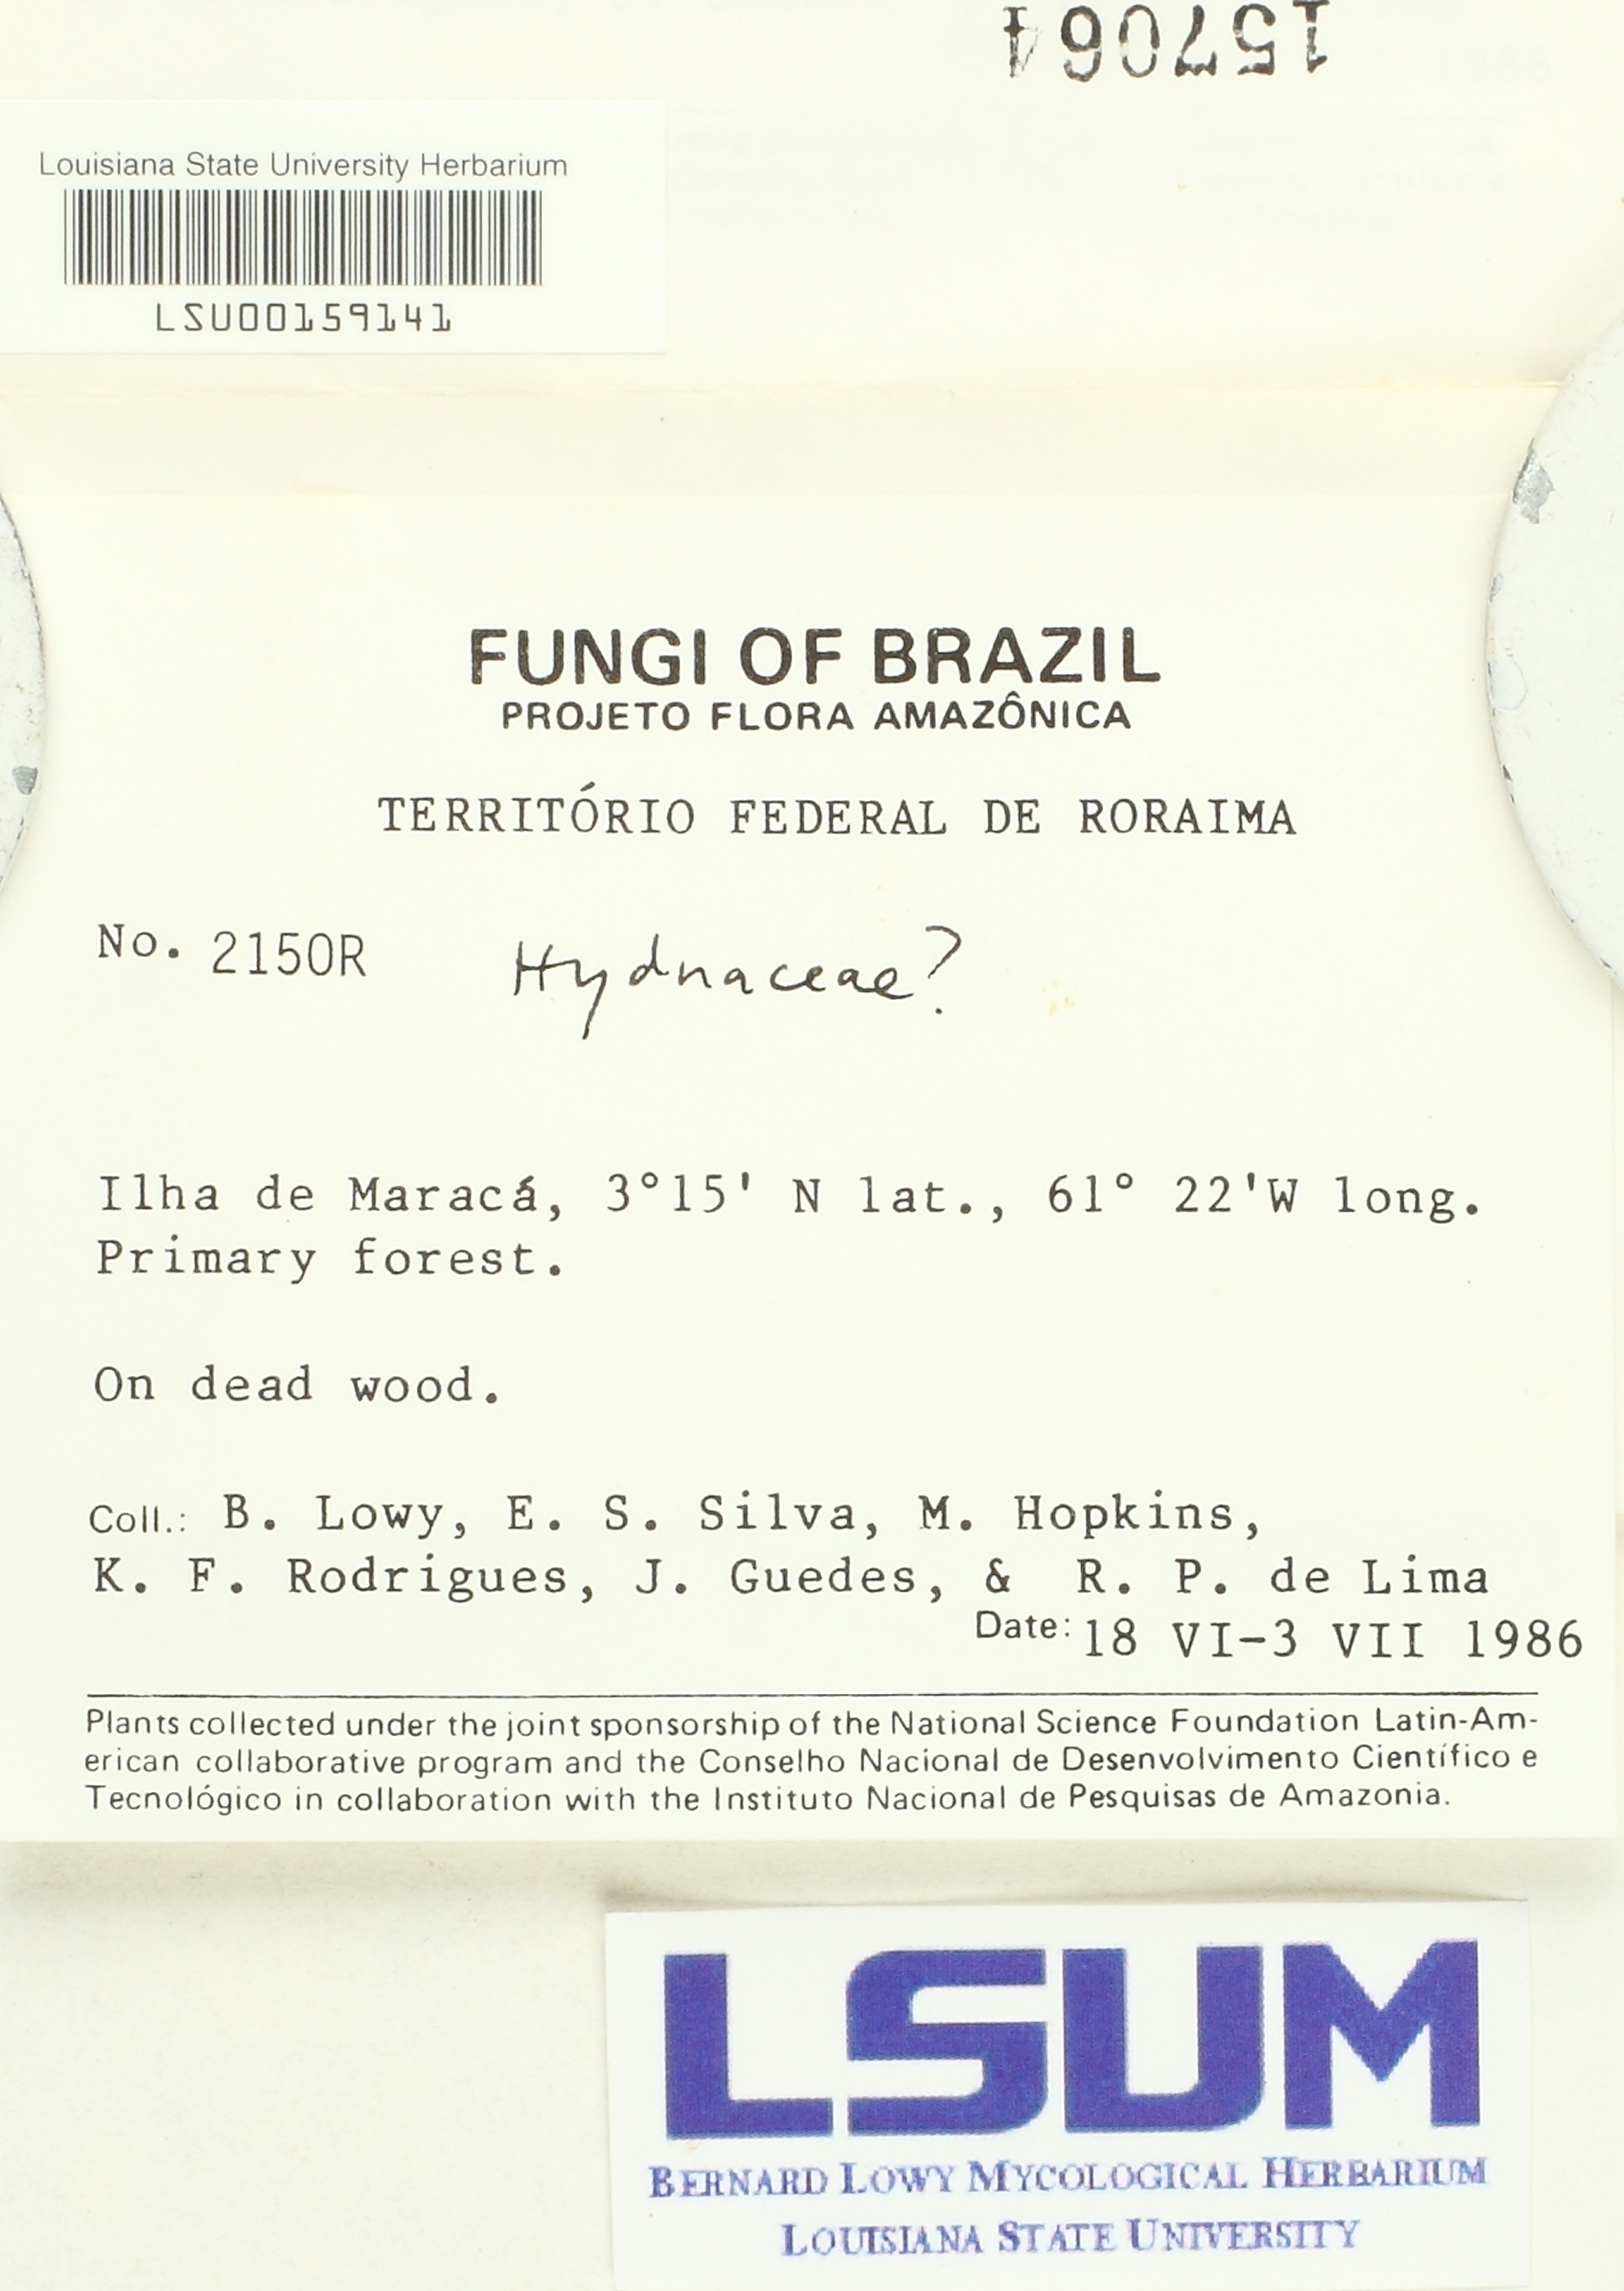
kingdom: Fungi
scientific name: Fungi
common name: Fungi
